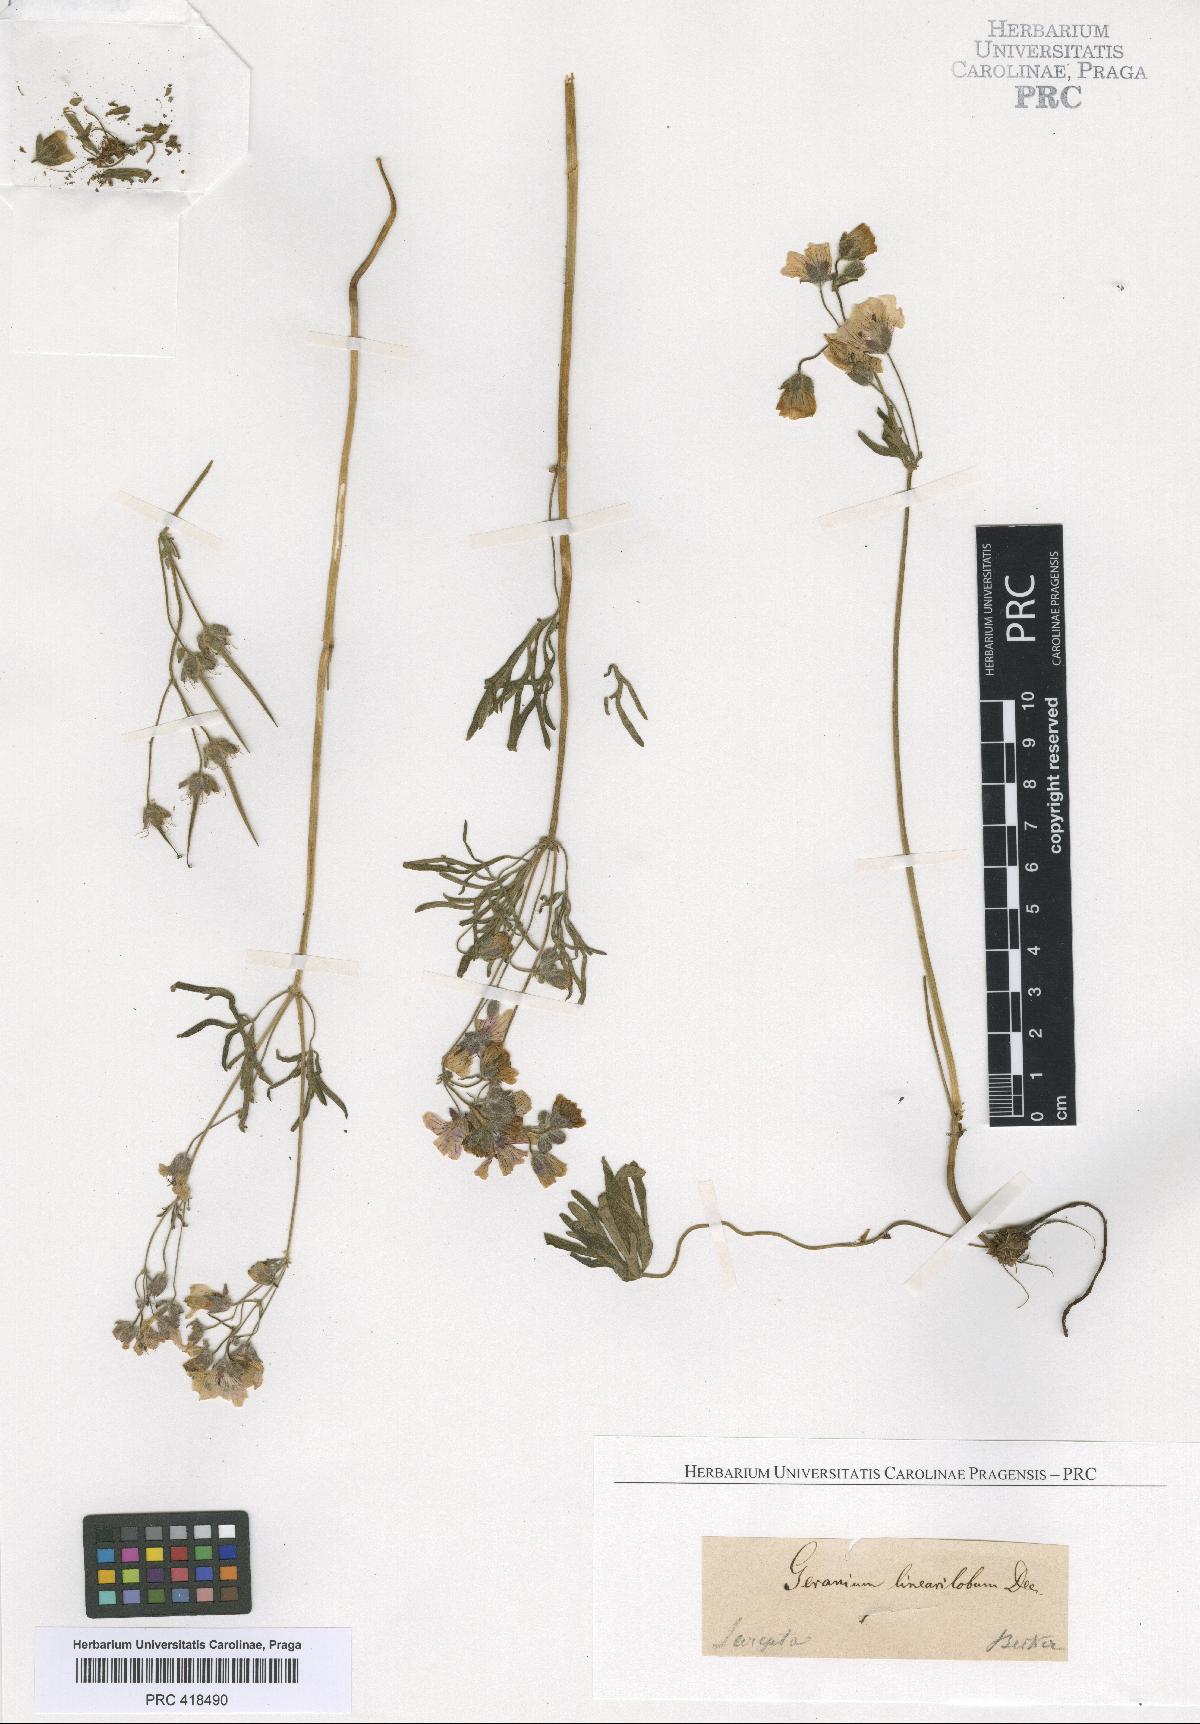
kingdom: Plantae
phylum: Tracheophyta
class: Magnoliopsida
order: Geraniales
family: Geraniaceae
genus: Geranium
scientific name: Geranium linearilobum
